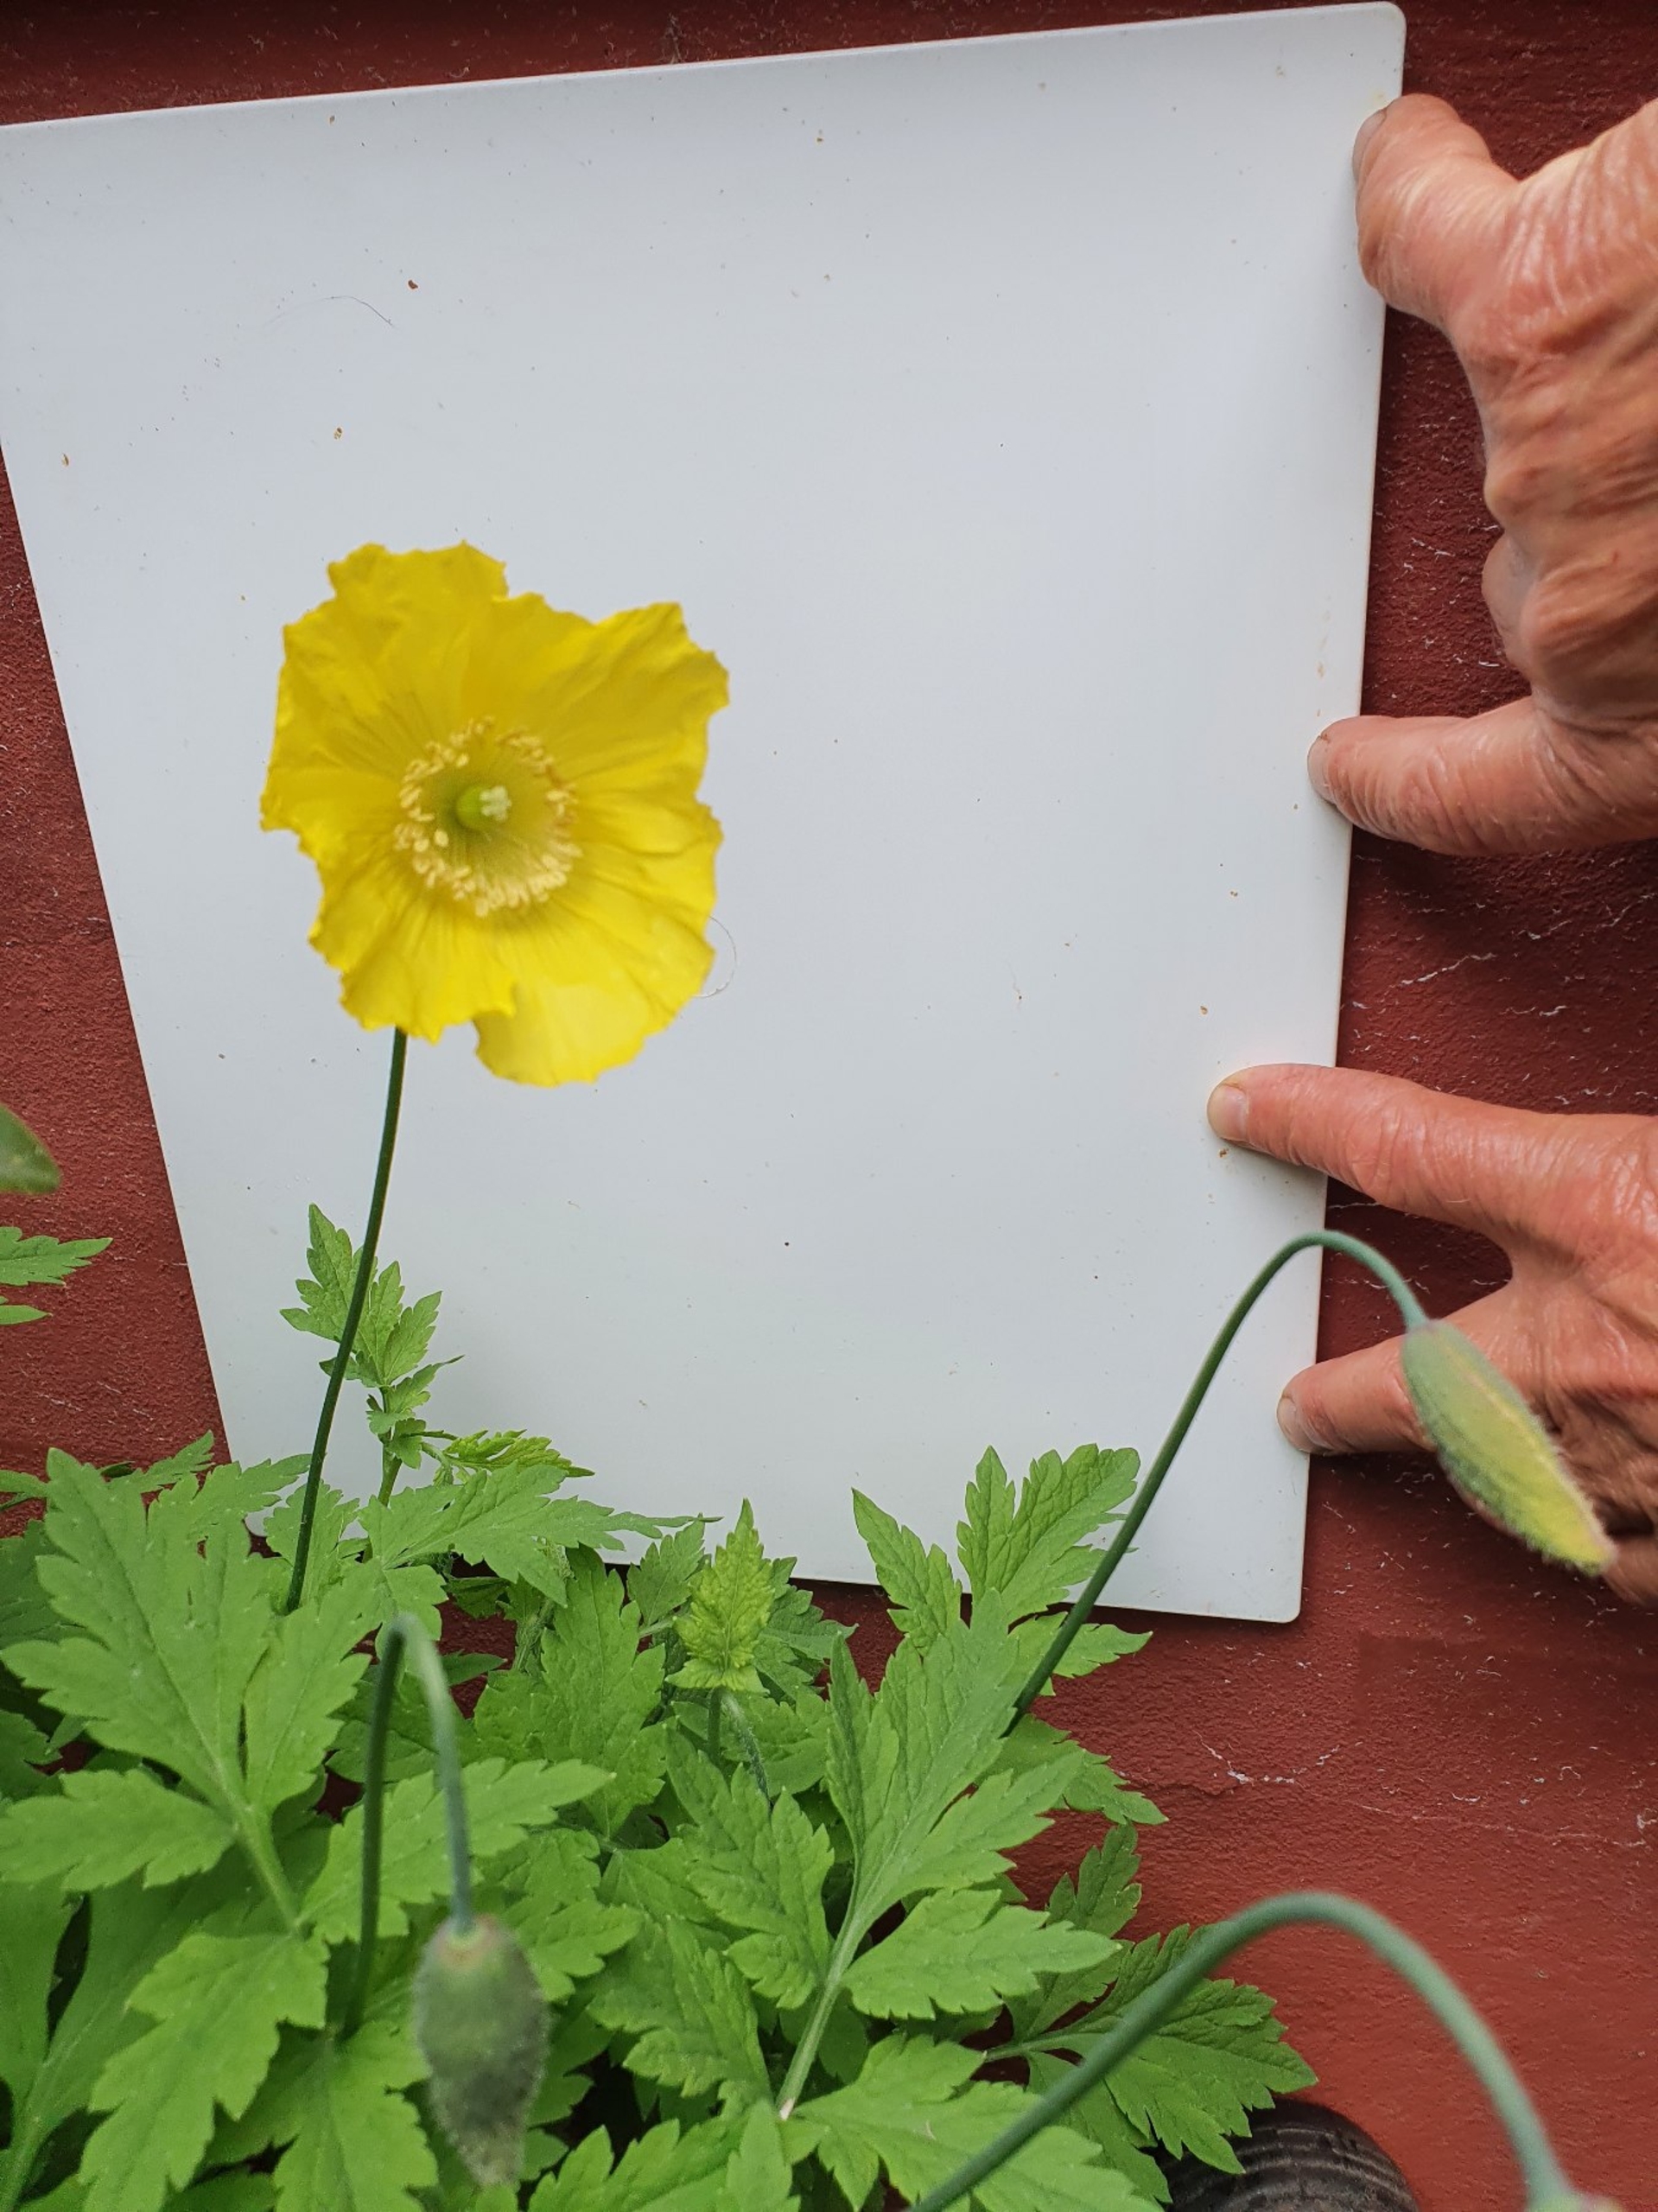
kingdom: Plantae
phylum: Tracheophyta
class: Magnoliopsida
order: Ranunculales
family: Papaveraceae
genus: Papaver
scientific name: Papaver cambricum
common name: Skov-valmue
